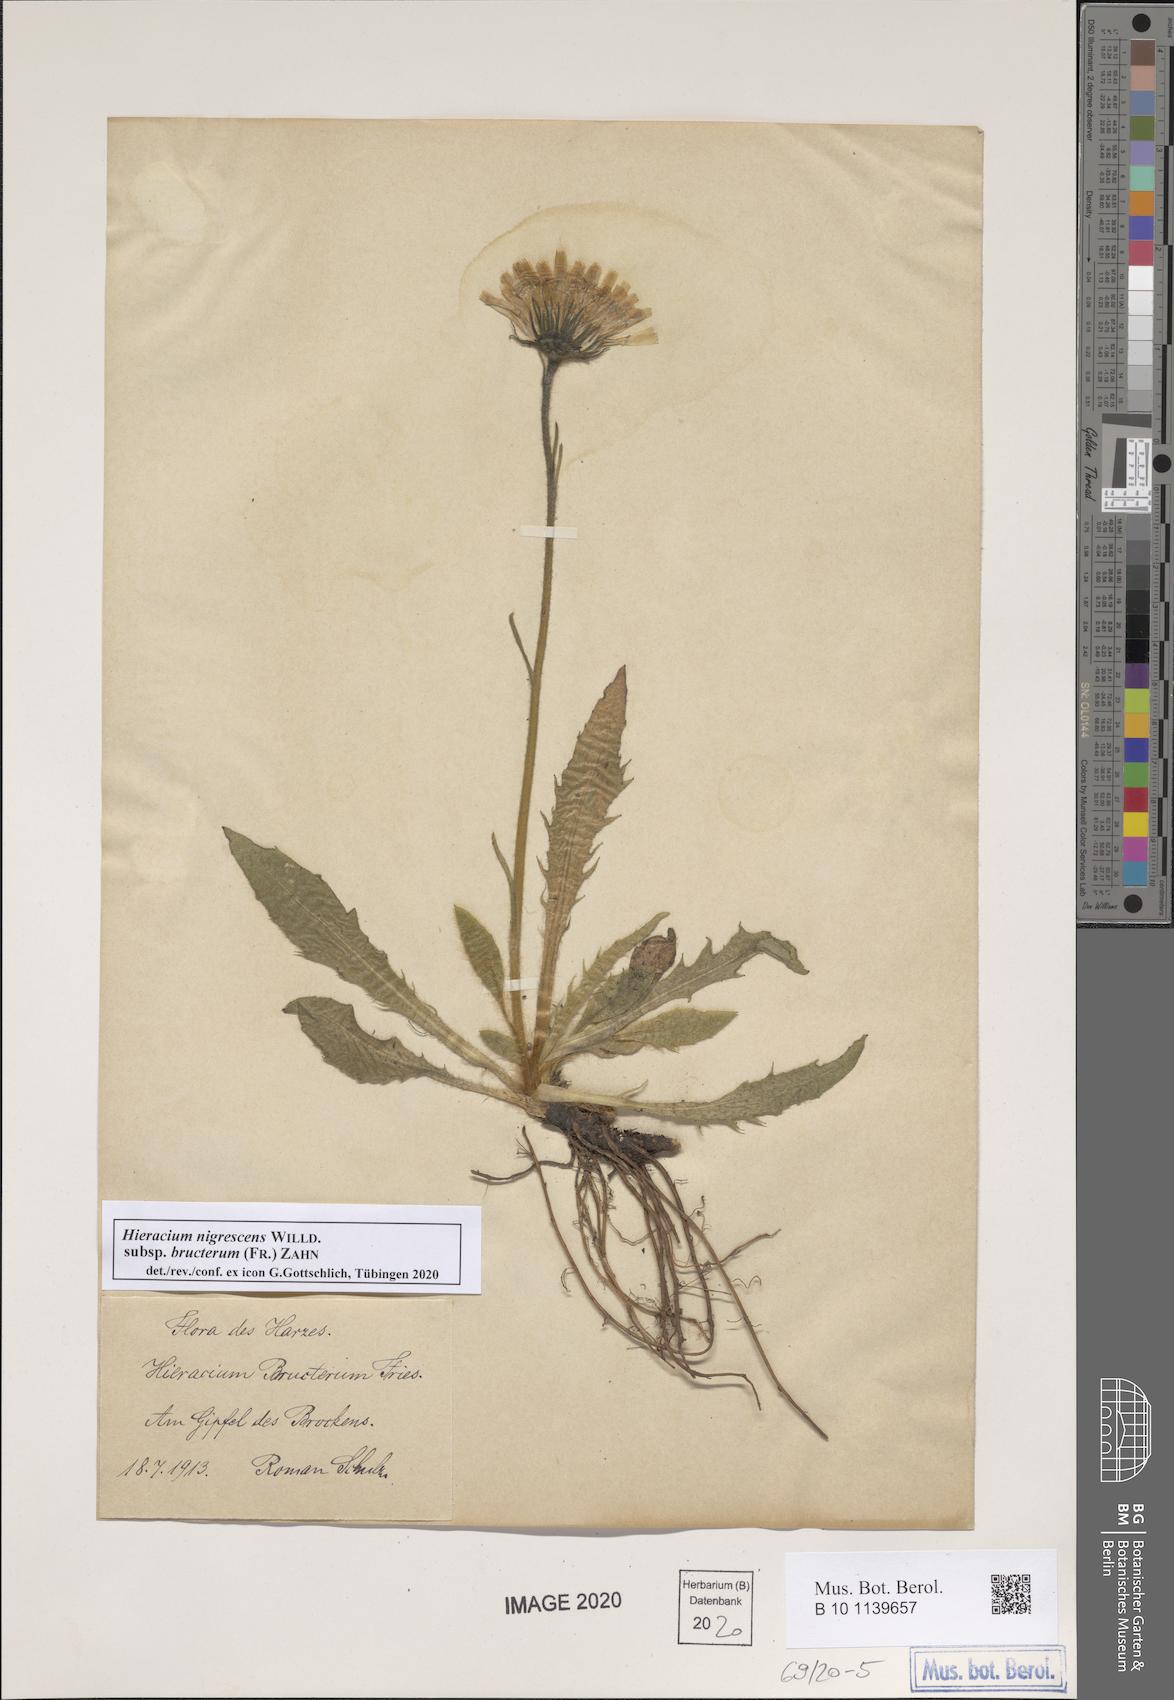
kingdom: Plantae
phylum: Tracheophyta
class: Magnoliopsida
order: Asterales
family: Asteraceae
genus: Hieracium
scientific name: Hieracium nigrescens
